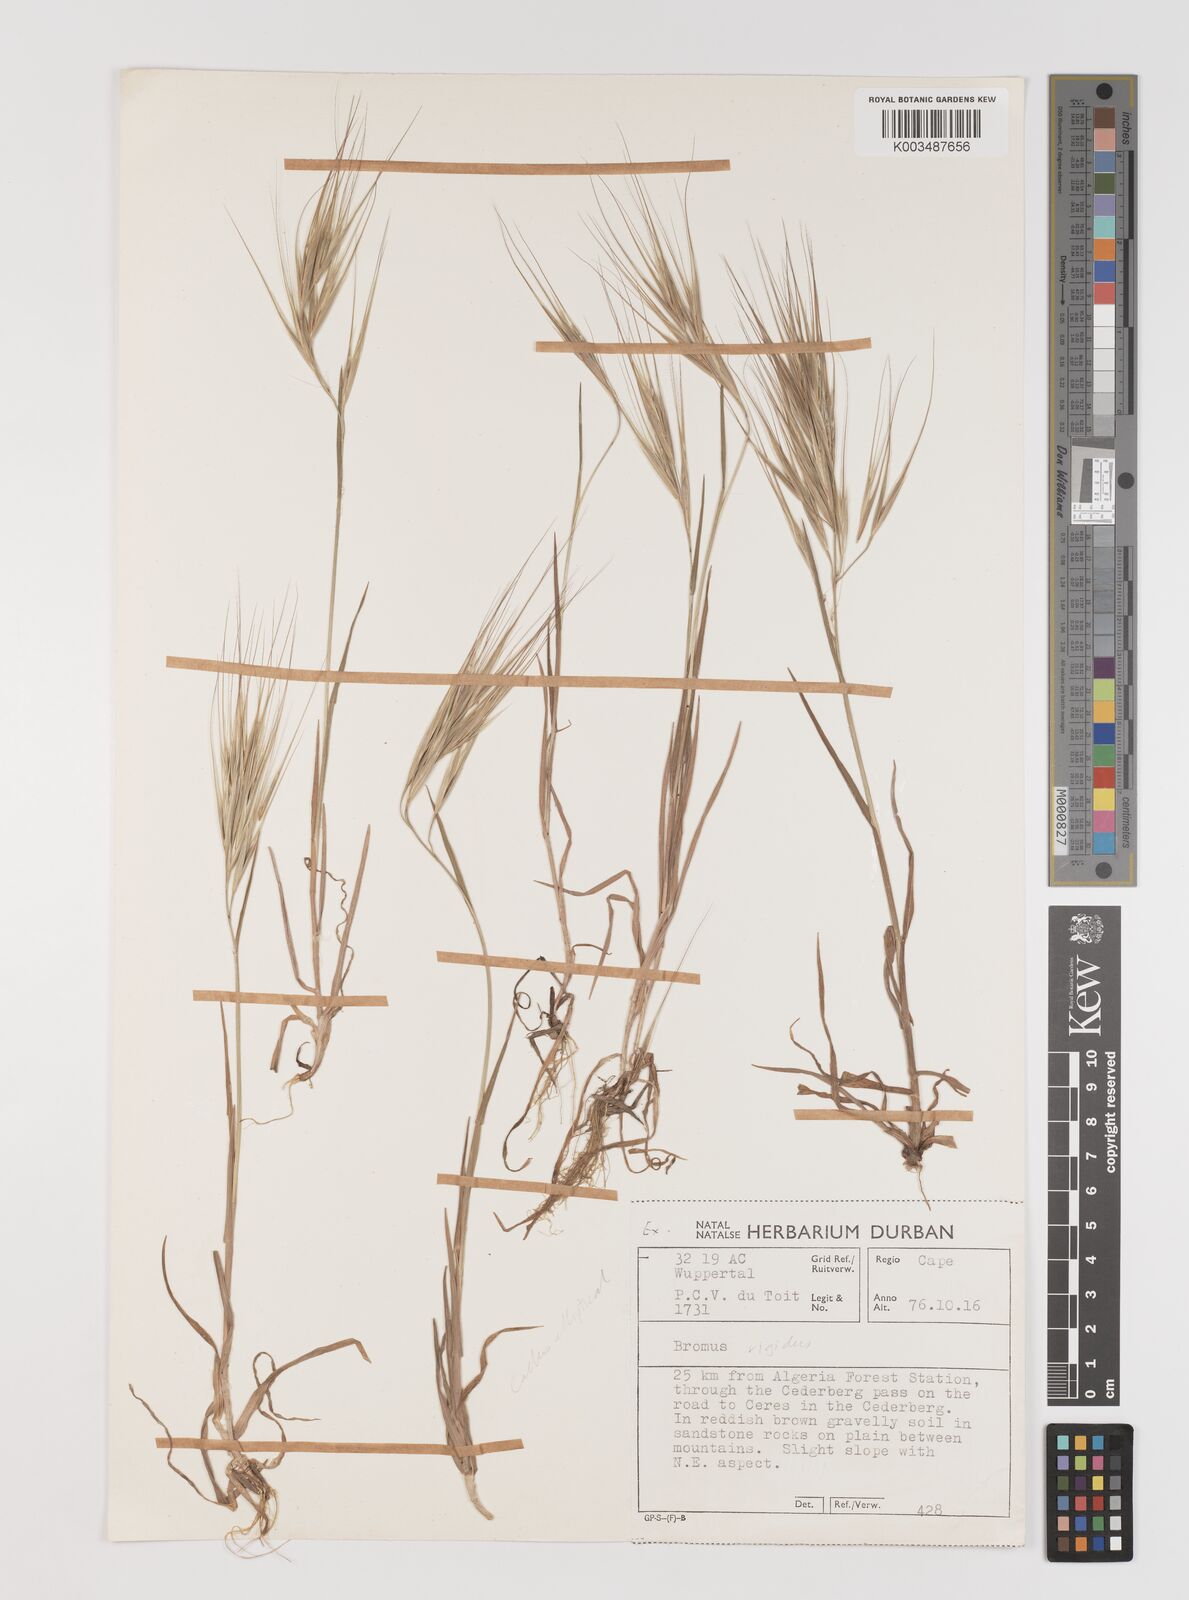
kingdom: Plantae
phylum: Tracheophyta
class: Liliopsida
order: Poales
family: Poaceae
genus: Bromus
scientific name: Bromus diandrus
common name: Ripgut brome
